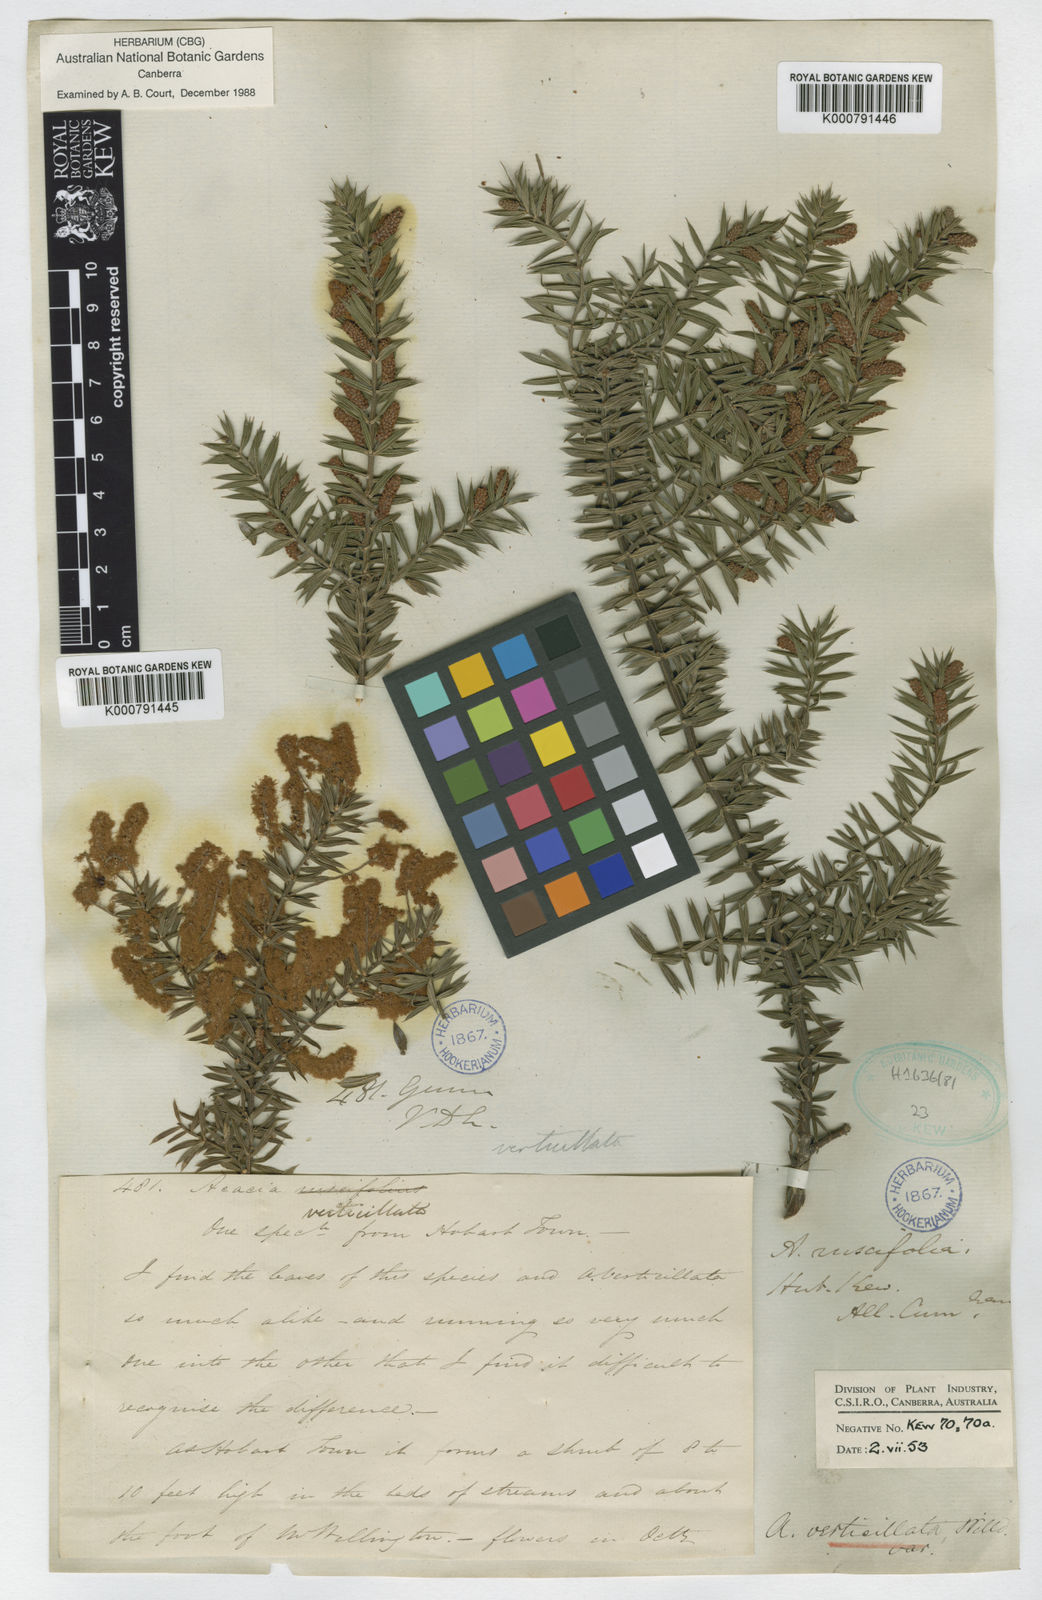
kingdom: Plantae
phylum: Tracheophyta
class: Magnoliopsida
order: Fabales
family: Fabaceae
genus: Acacia
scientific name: Acacia verticillata
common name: Prickly moses
